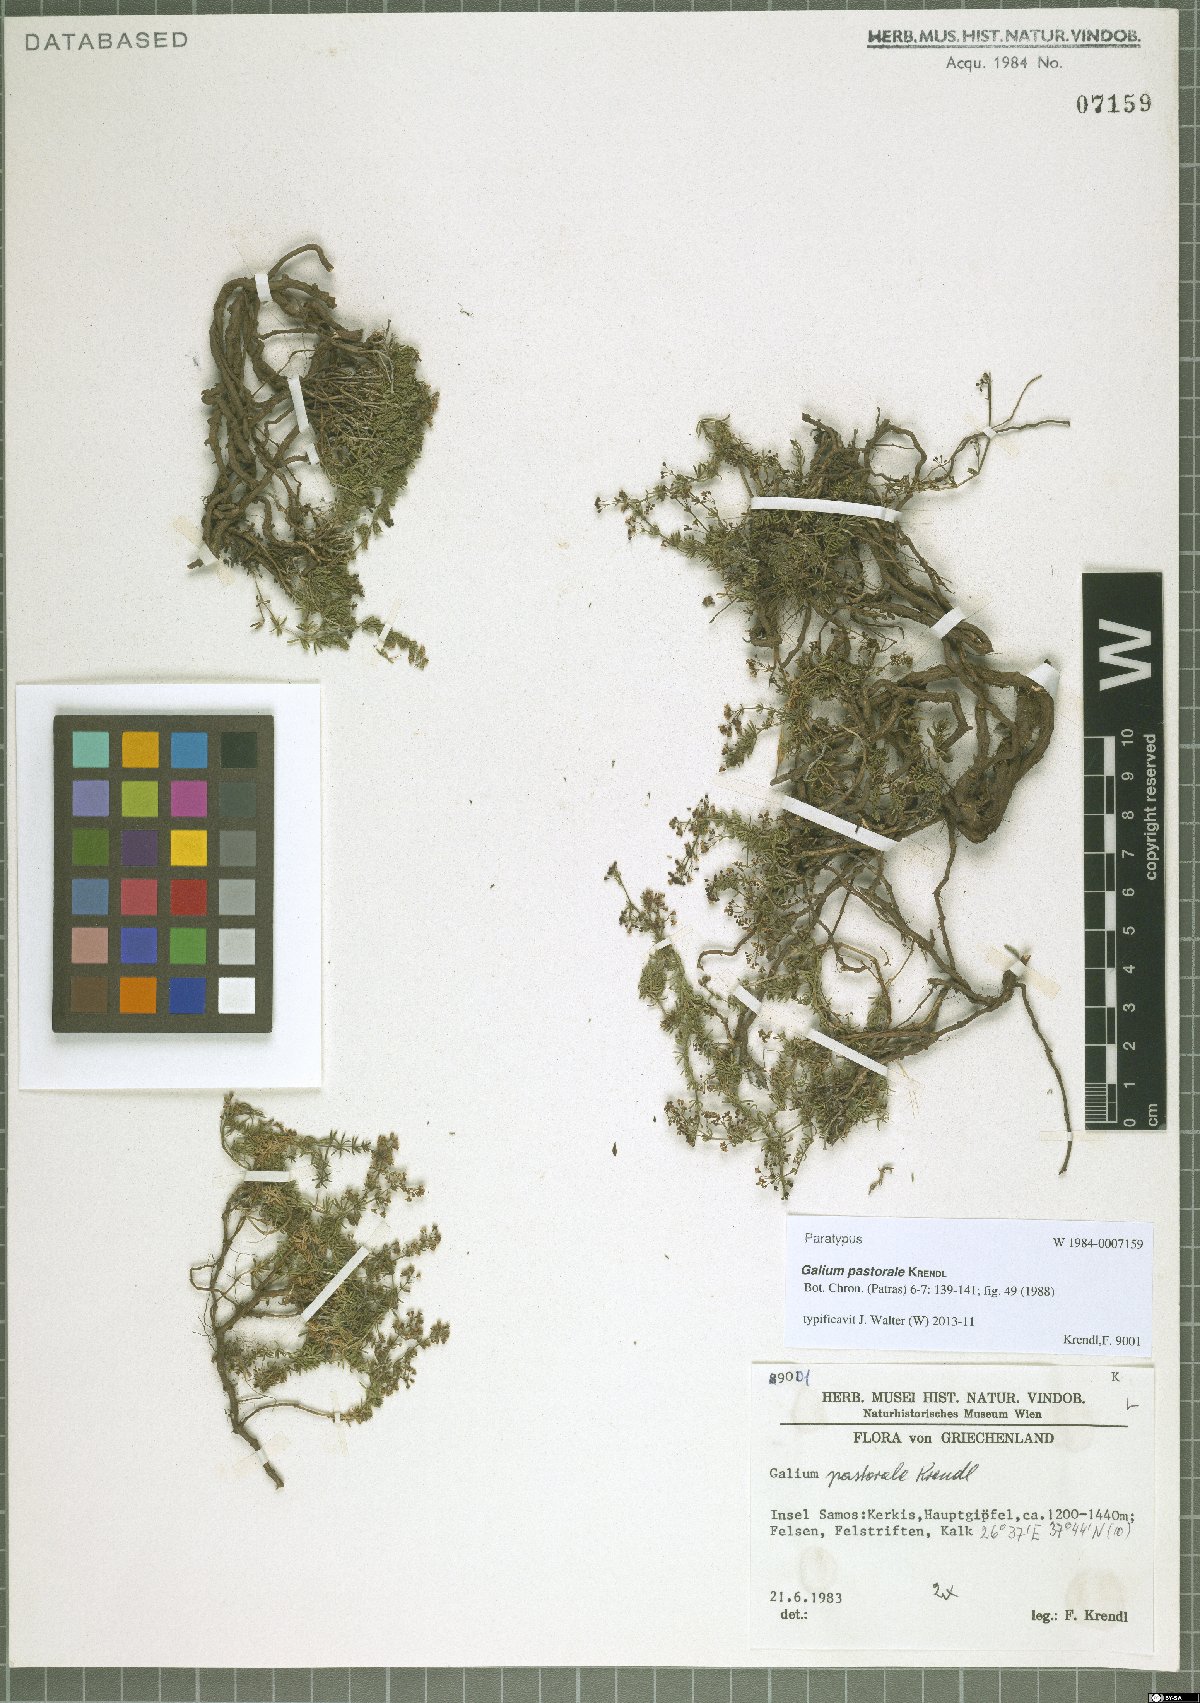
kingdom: Plantae
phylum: Tracheophyta
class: Magnoliopsida
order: Gentianales
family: Rubiaceae
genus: Galium
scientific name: Galium pastorale
